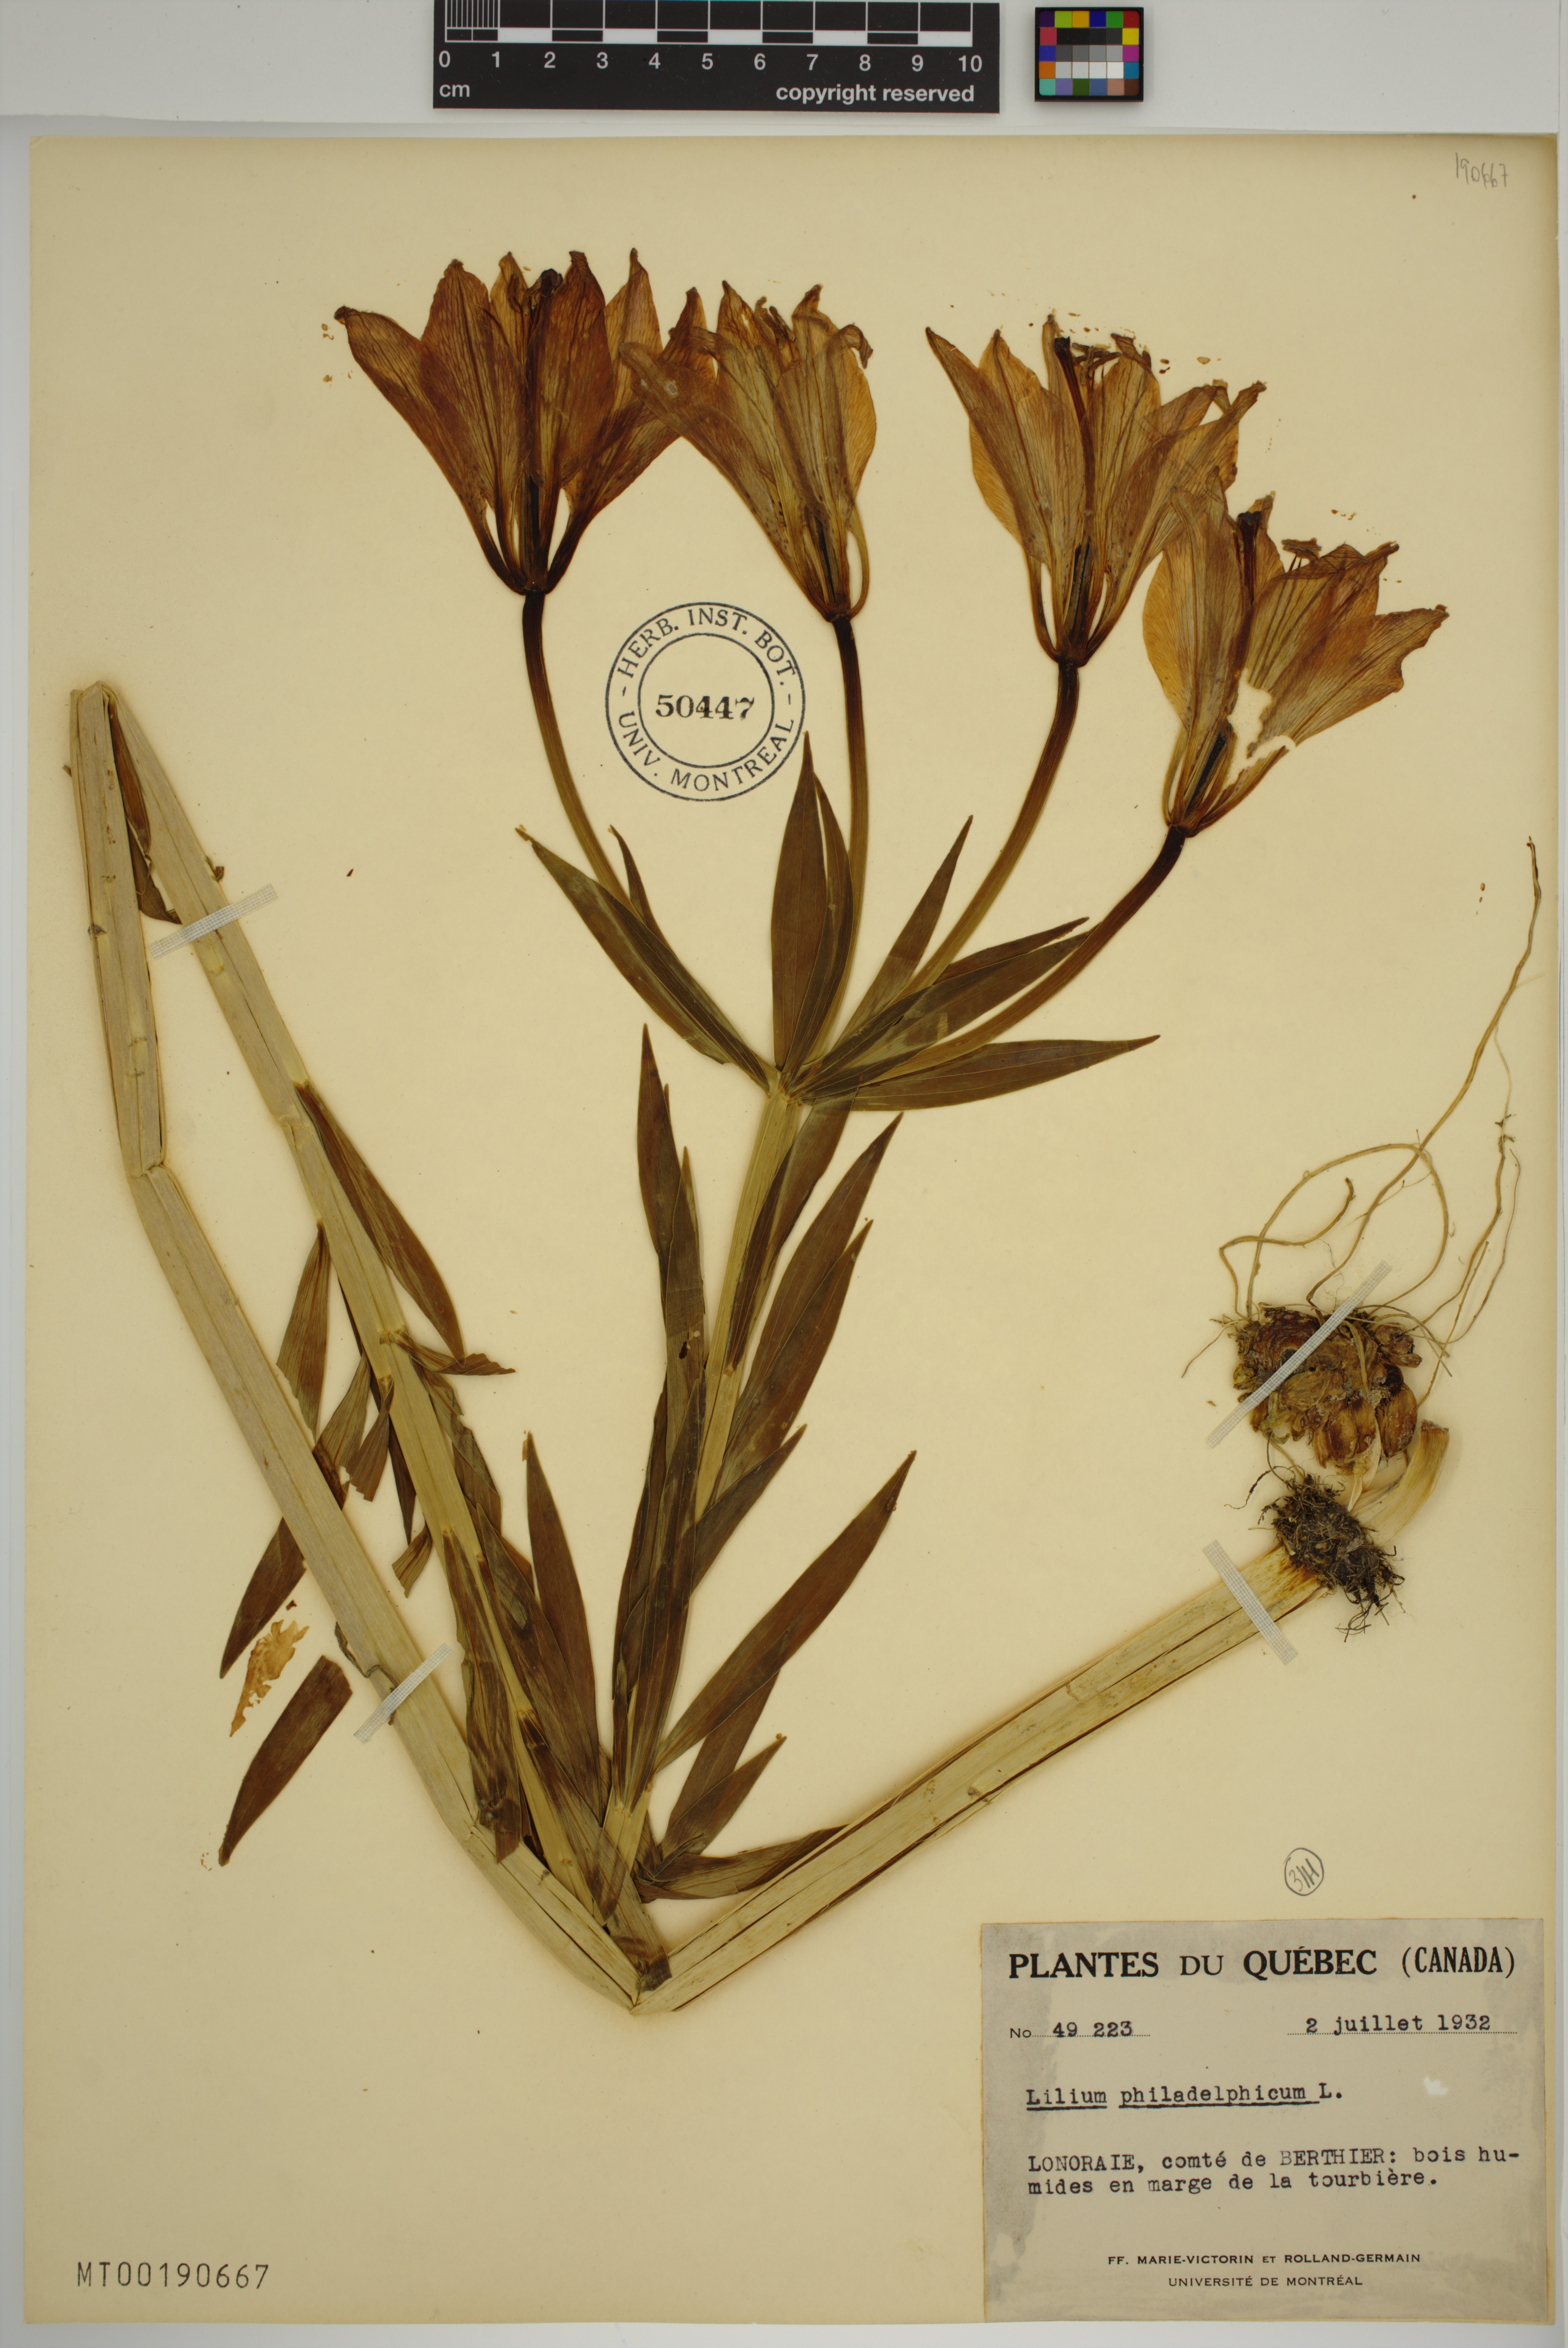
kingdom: Plantae
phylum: Tracheophyta
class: Liliopsida
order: Liliales
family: Liliaceae
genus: Lilium
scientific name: Lilium philadelphicum
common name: Red lily
